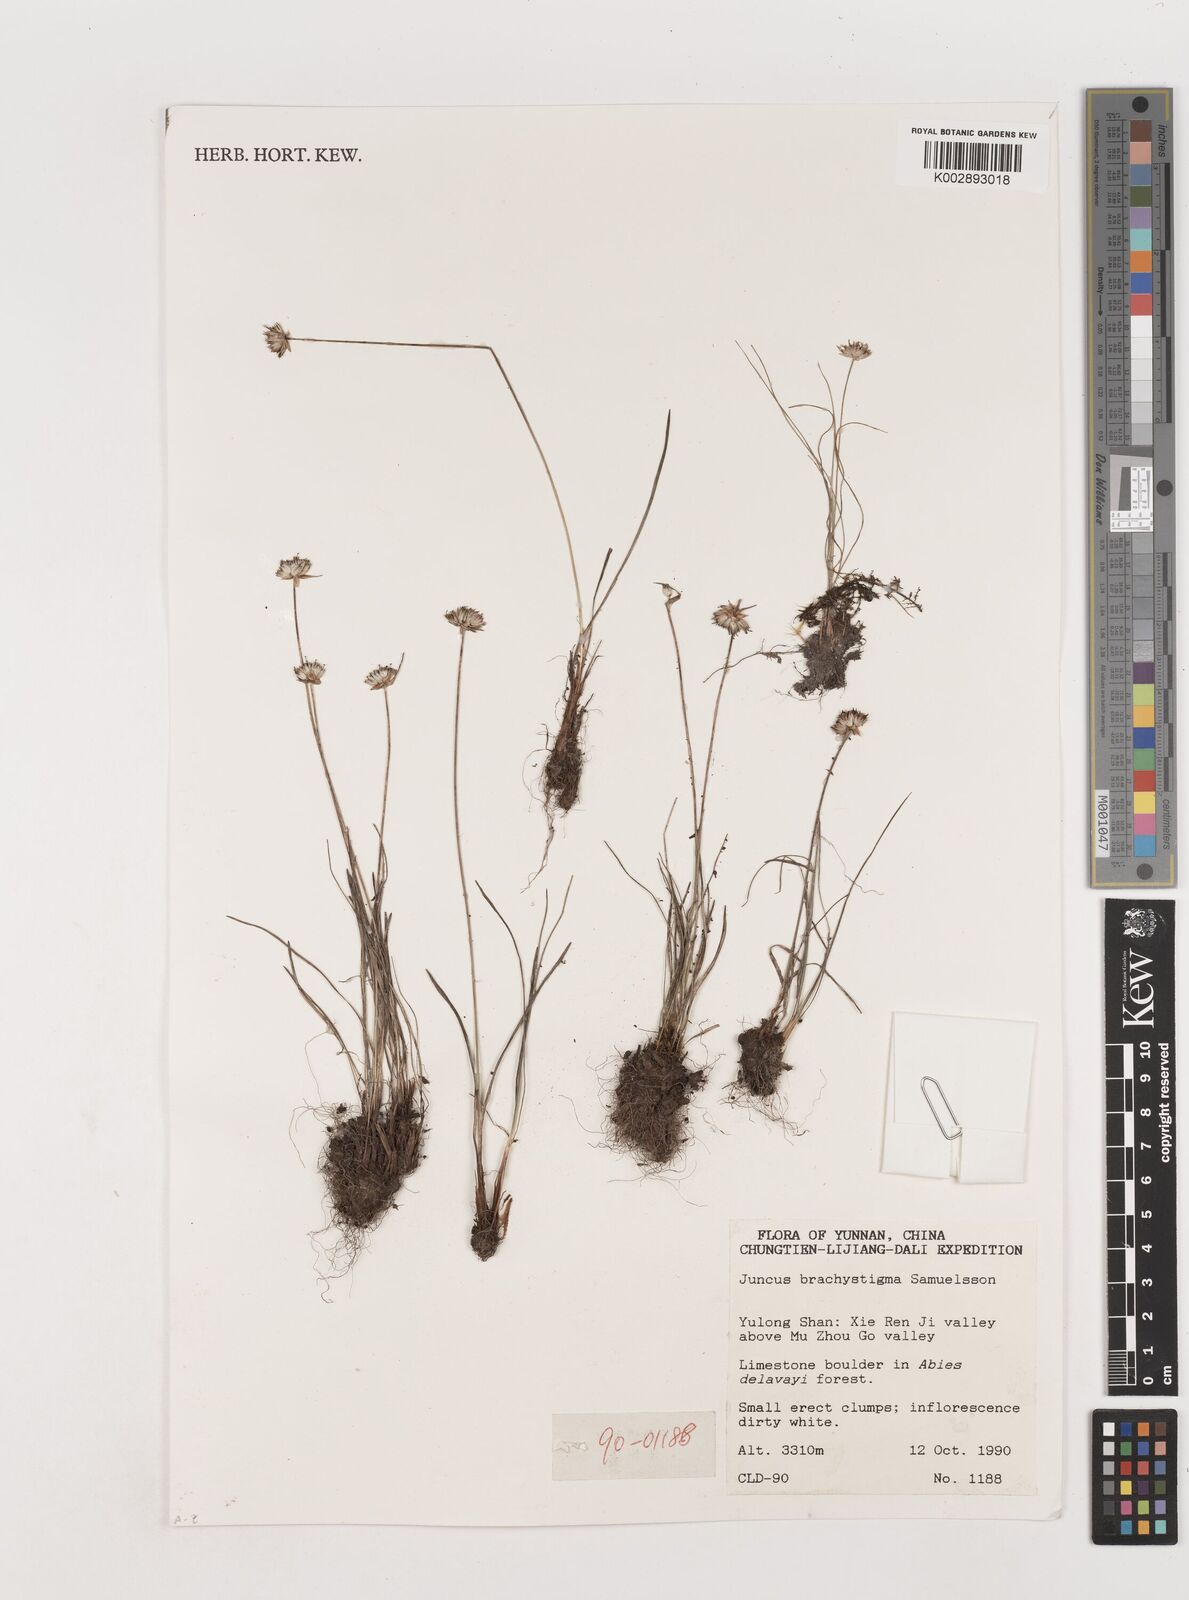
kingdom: Plantae
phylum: Tracheophyta
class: Liliopsida
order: Poales
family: Juncaceae
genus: Juncus
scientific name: Juncus brachystigma
